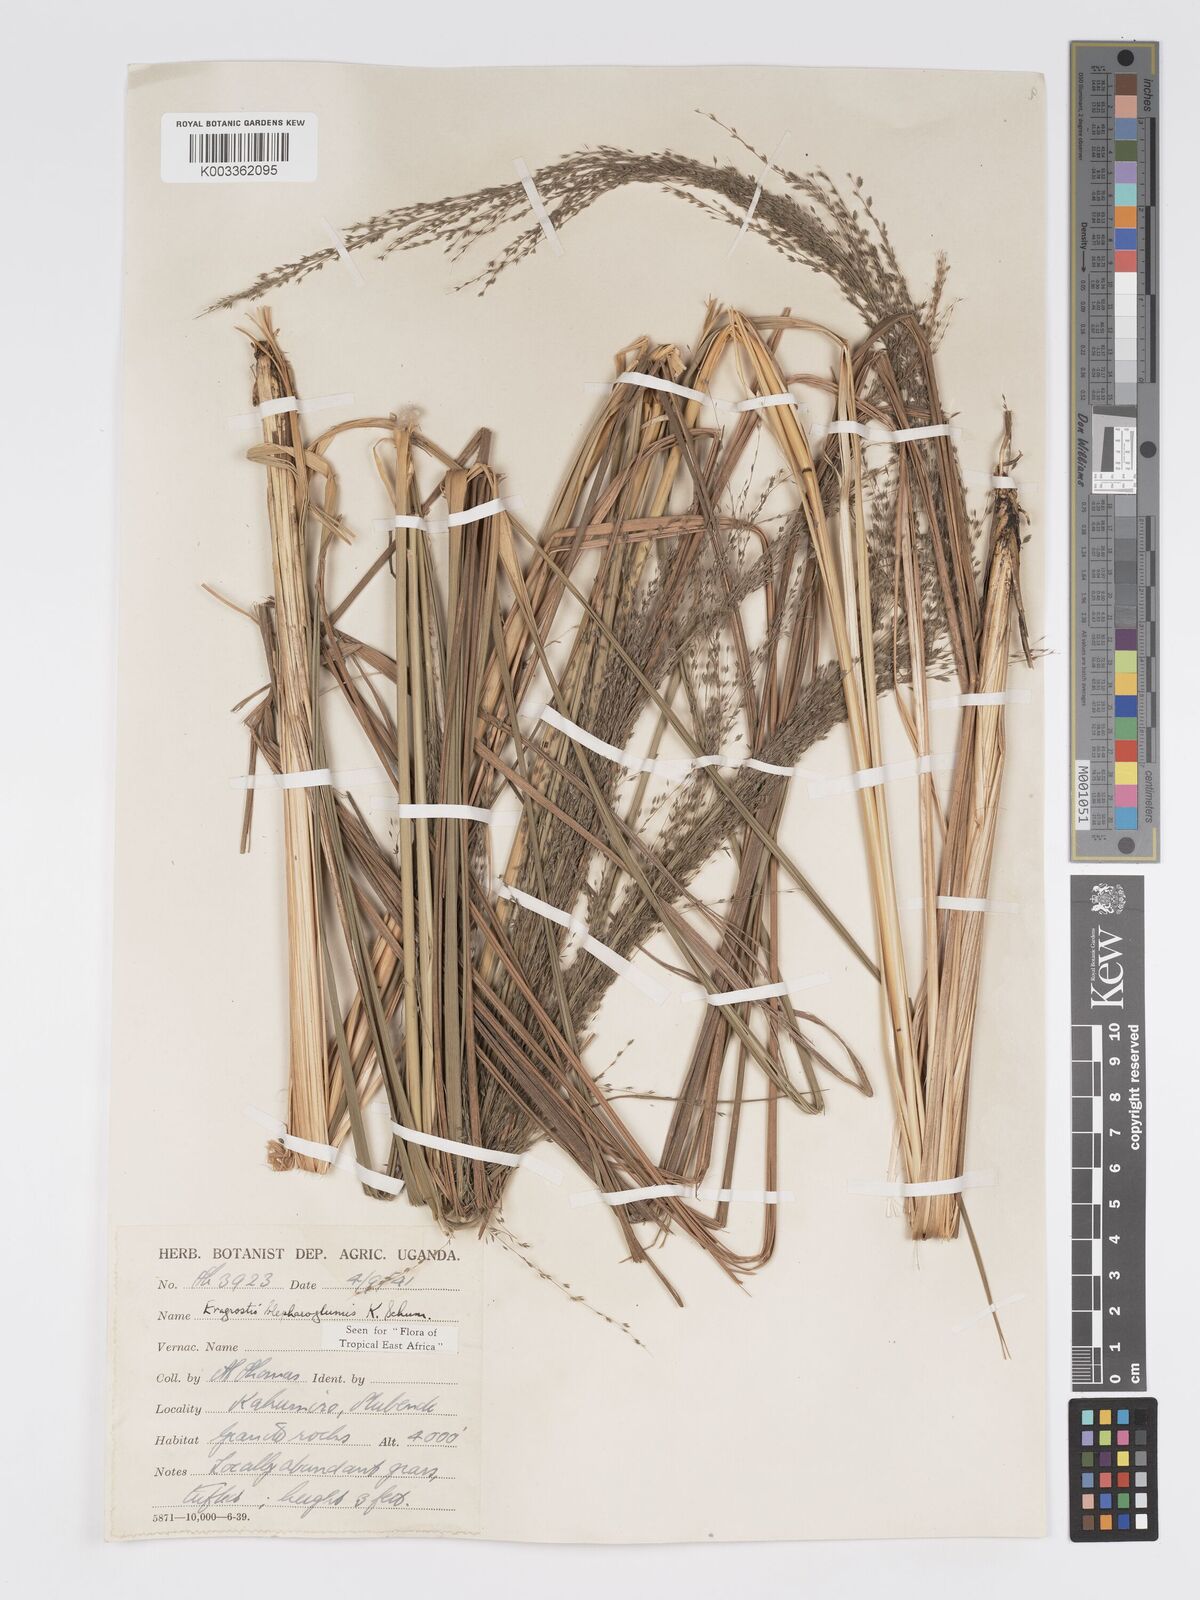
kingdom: Plantae
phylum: Tracheophyta
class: Liliopsida
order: Poales
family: Poaceae
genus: Eragrostis
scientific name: Eragrostis olivacea
